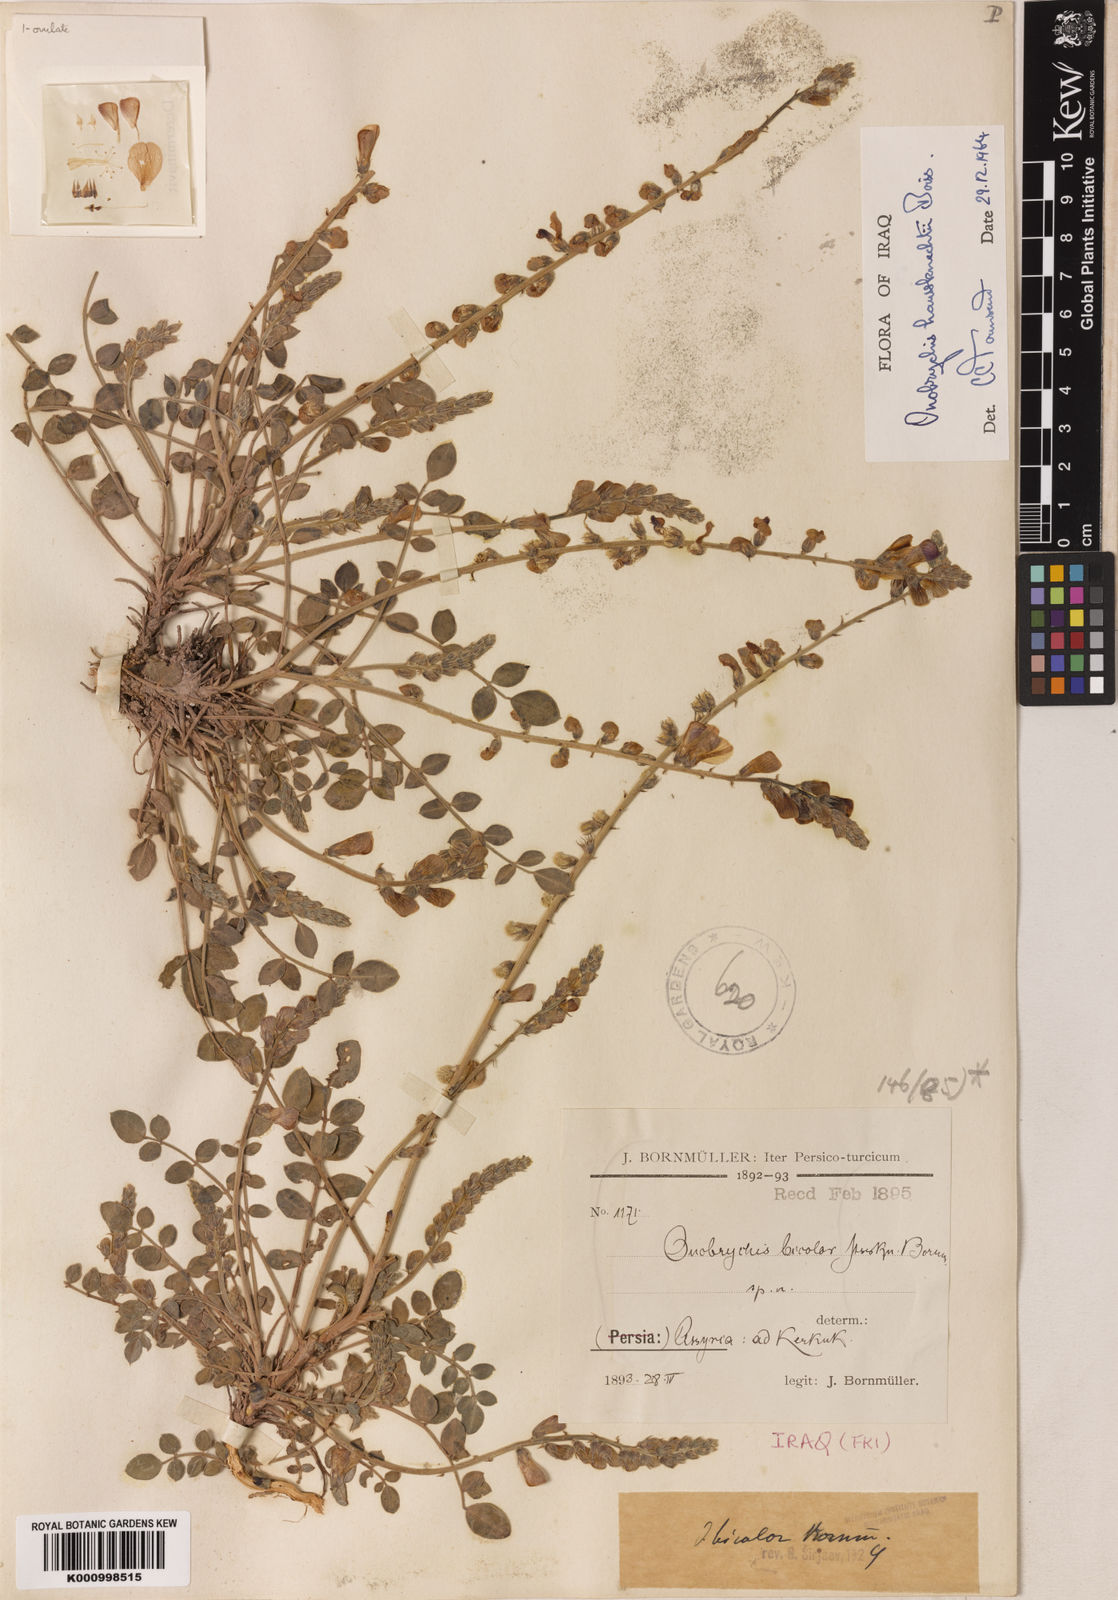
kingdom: Plantae
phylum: Tracheophyta
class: Magnoliopsida
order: Fabales
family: Fabaceae
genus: Onobrychis
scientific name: Onobrychis haussknechtii
